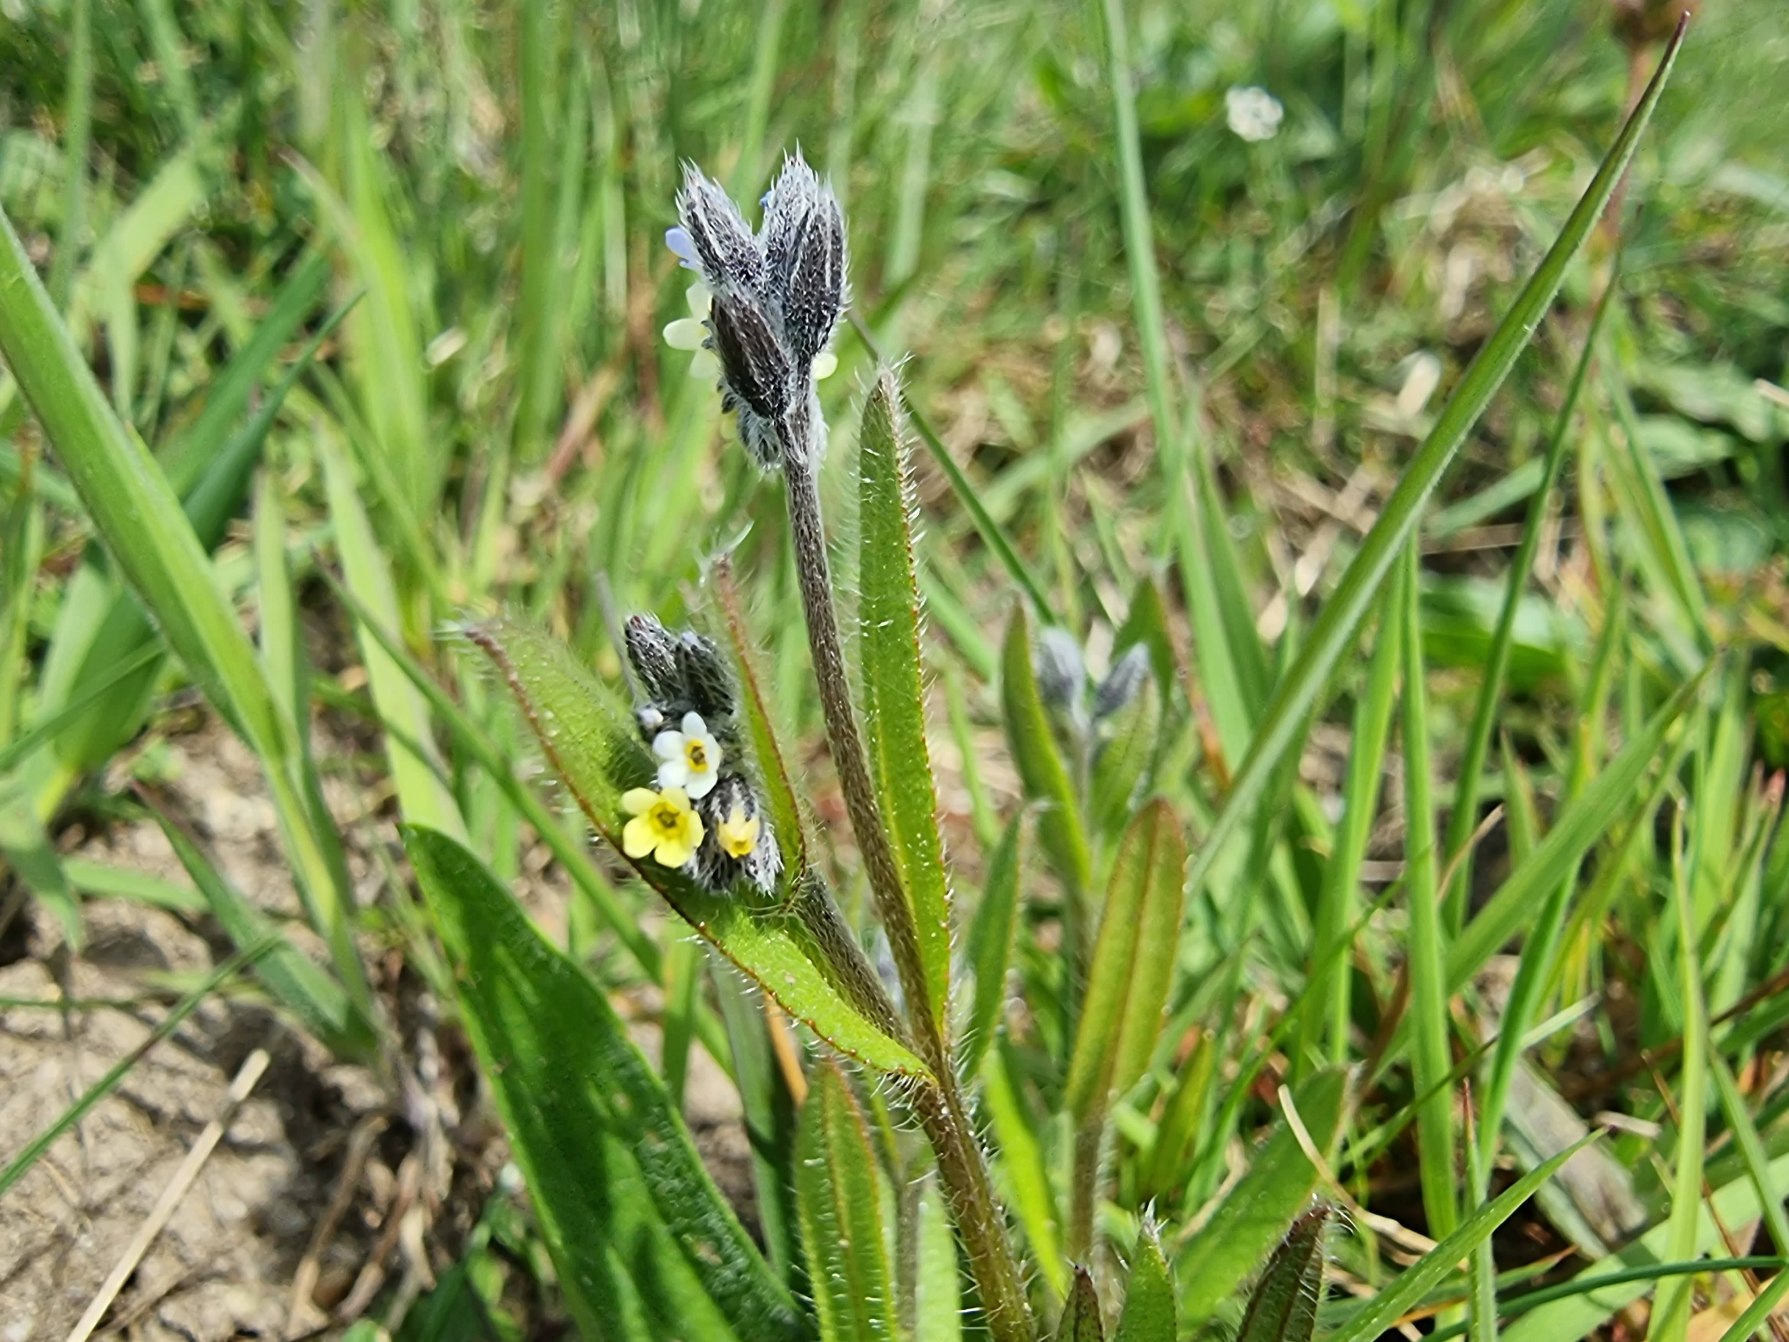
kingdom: Plantae
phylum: Tracheophyta
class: Magnoliopsida
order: Boraginales
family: Boraginaceae
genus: Myosotis
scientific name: Myosotis discolor
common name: Forskelligfarvet forglemmigej
